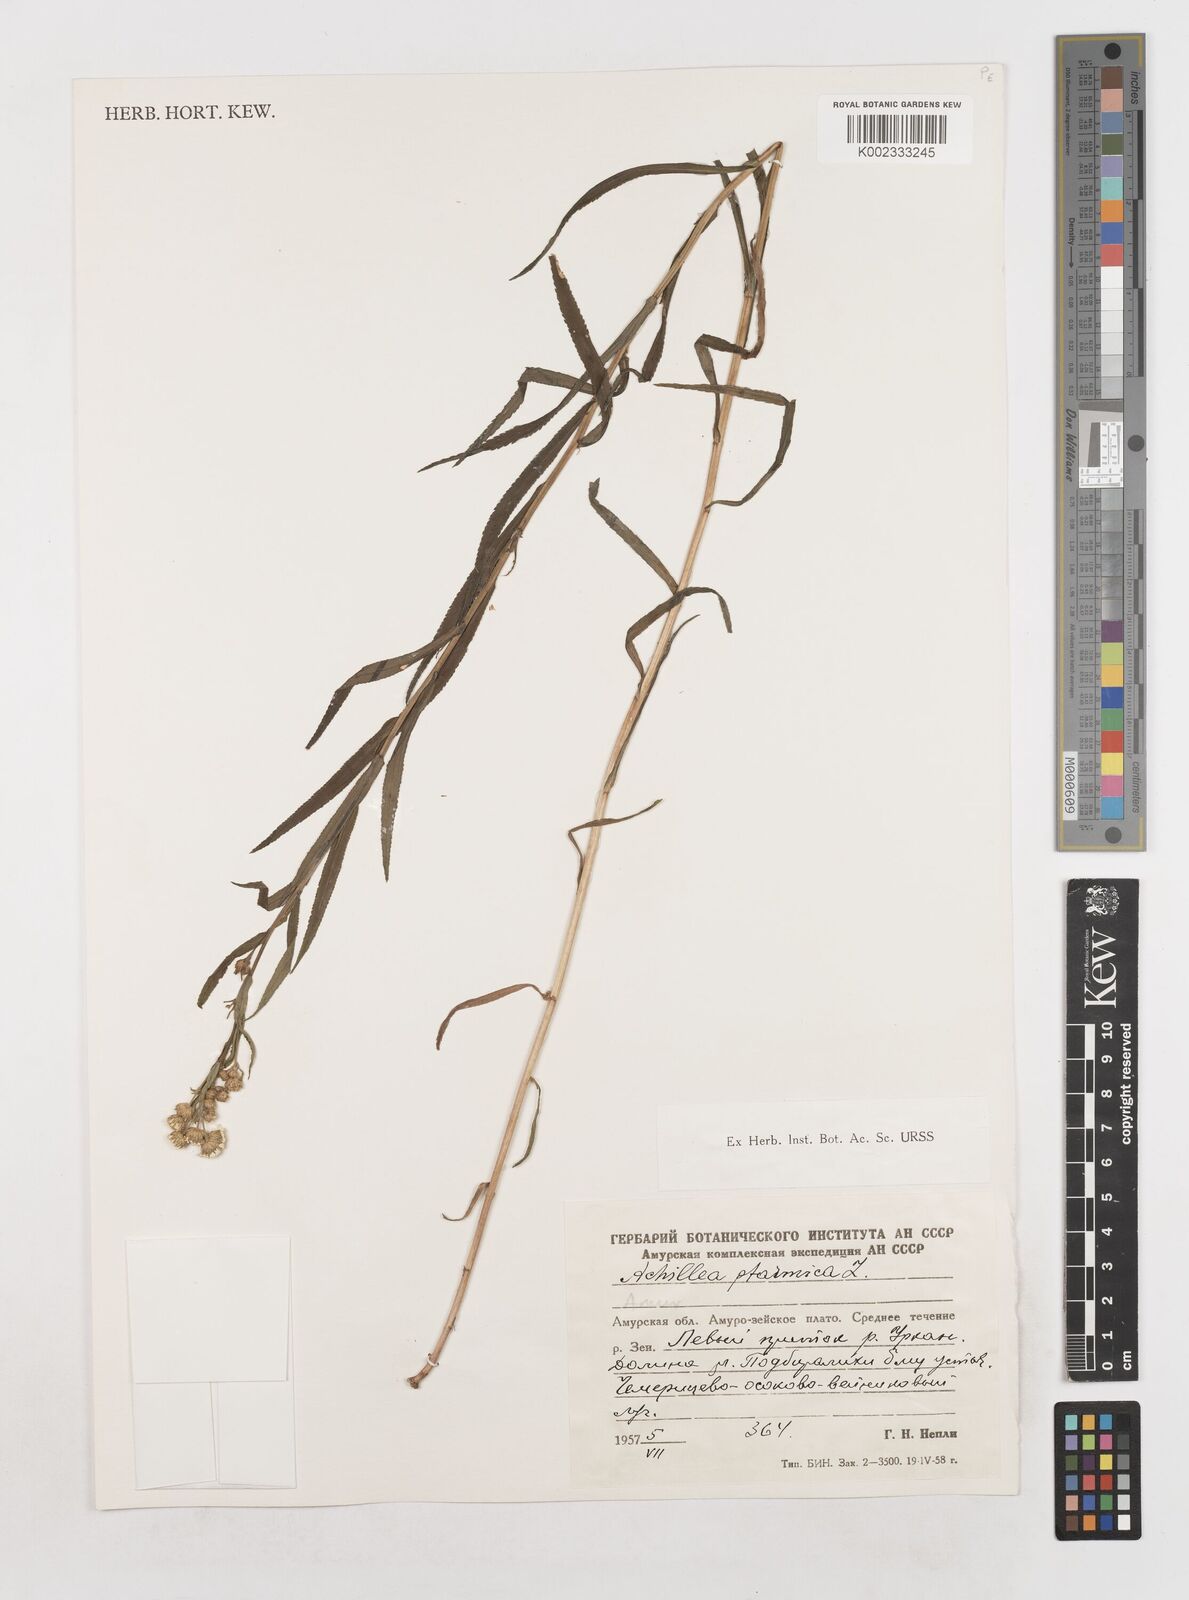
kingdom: Plantae
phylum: Tracheophyta
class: Magnoliopsida
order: Asterales
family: Asteraceae
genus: Achillea
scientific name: Achillea ptarmica
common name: Sneezeweed
